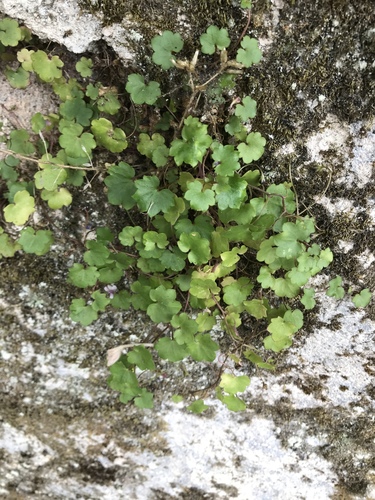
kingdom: Plantae
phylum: Tracheophyta
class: Magnoliopsida
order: Lamiales
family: Plantaginaceae
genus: Cymbalaria
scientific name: Cymbalaria muralis
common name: Ivy-leaved toadflax
